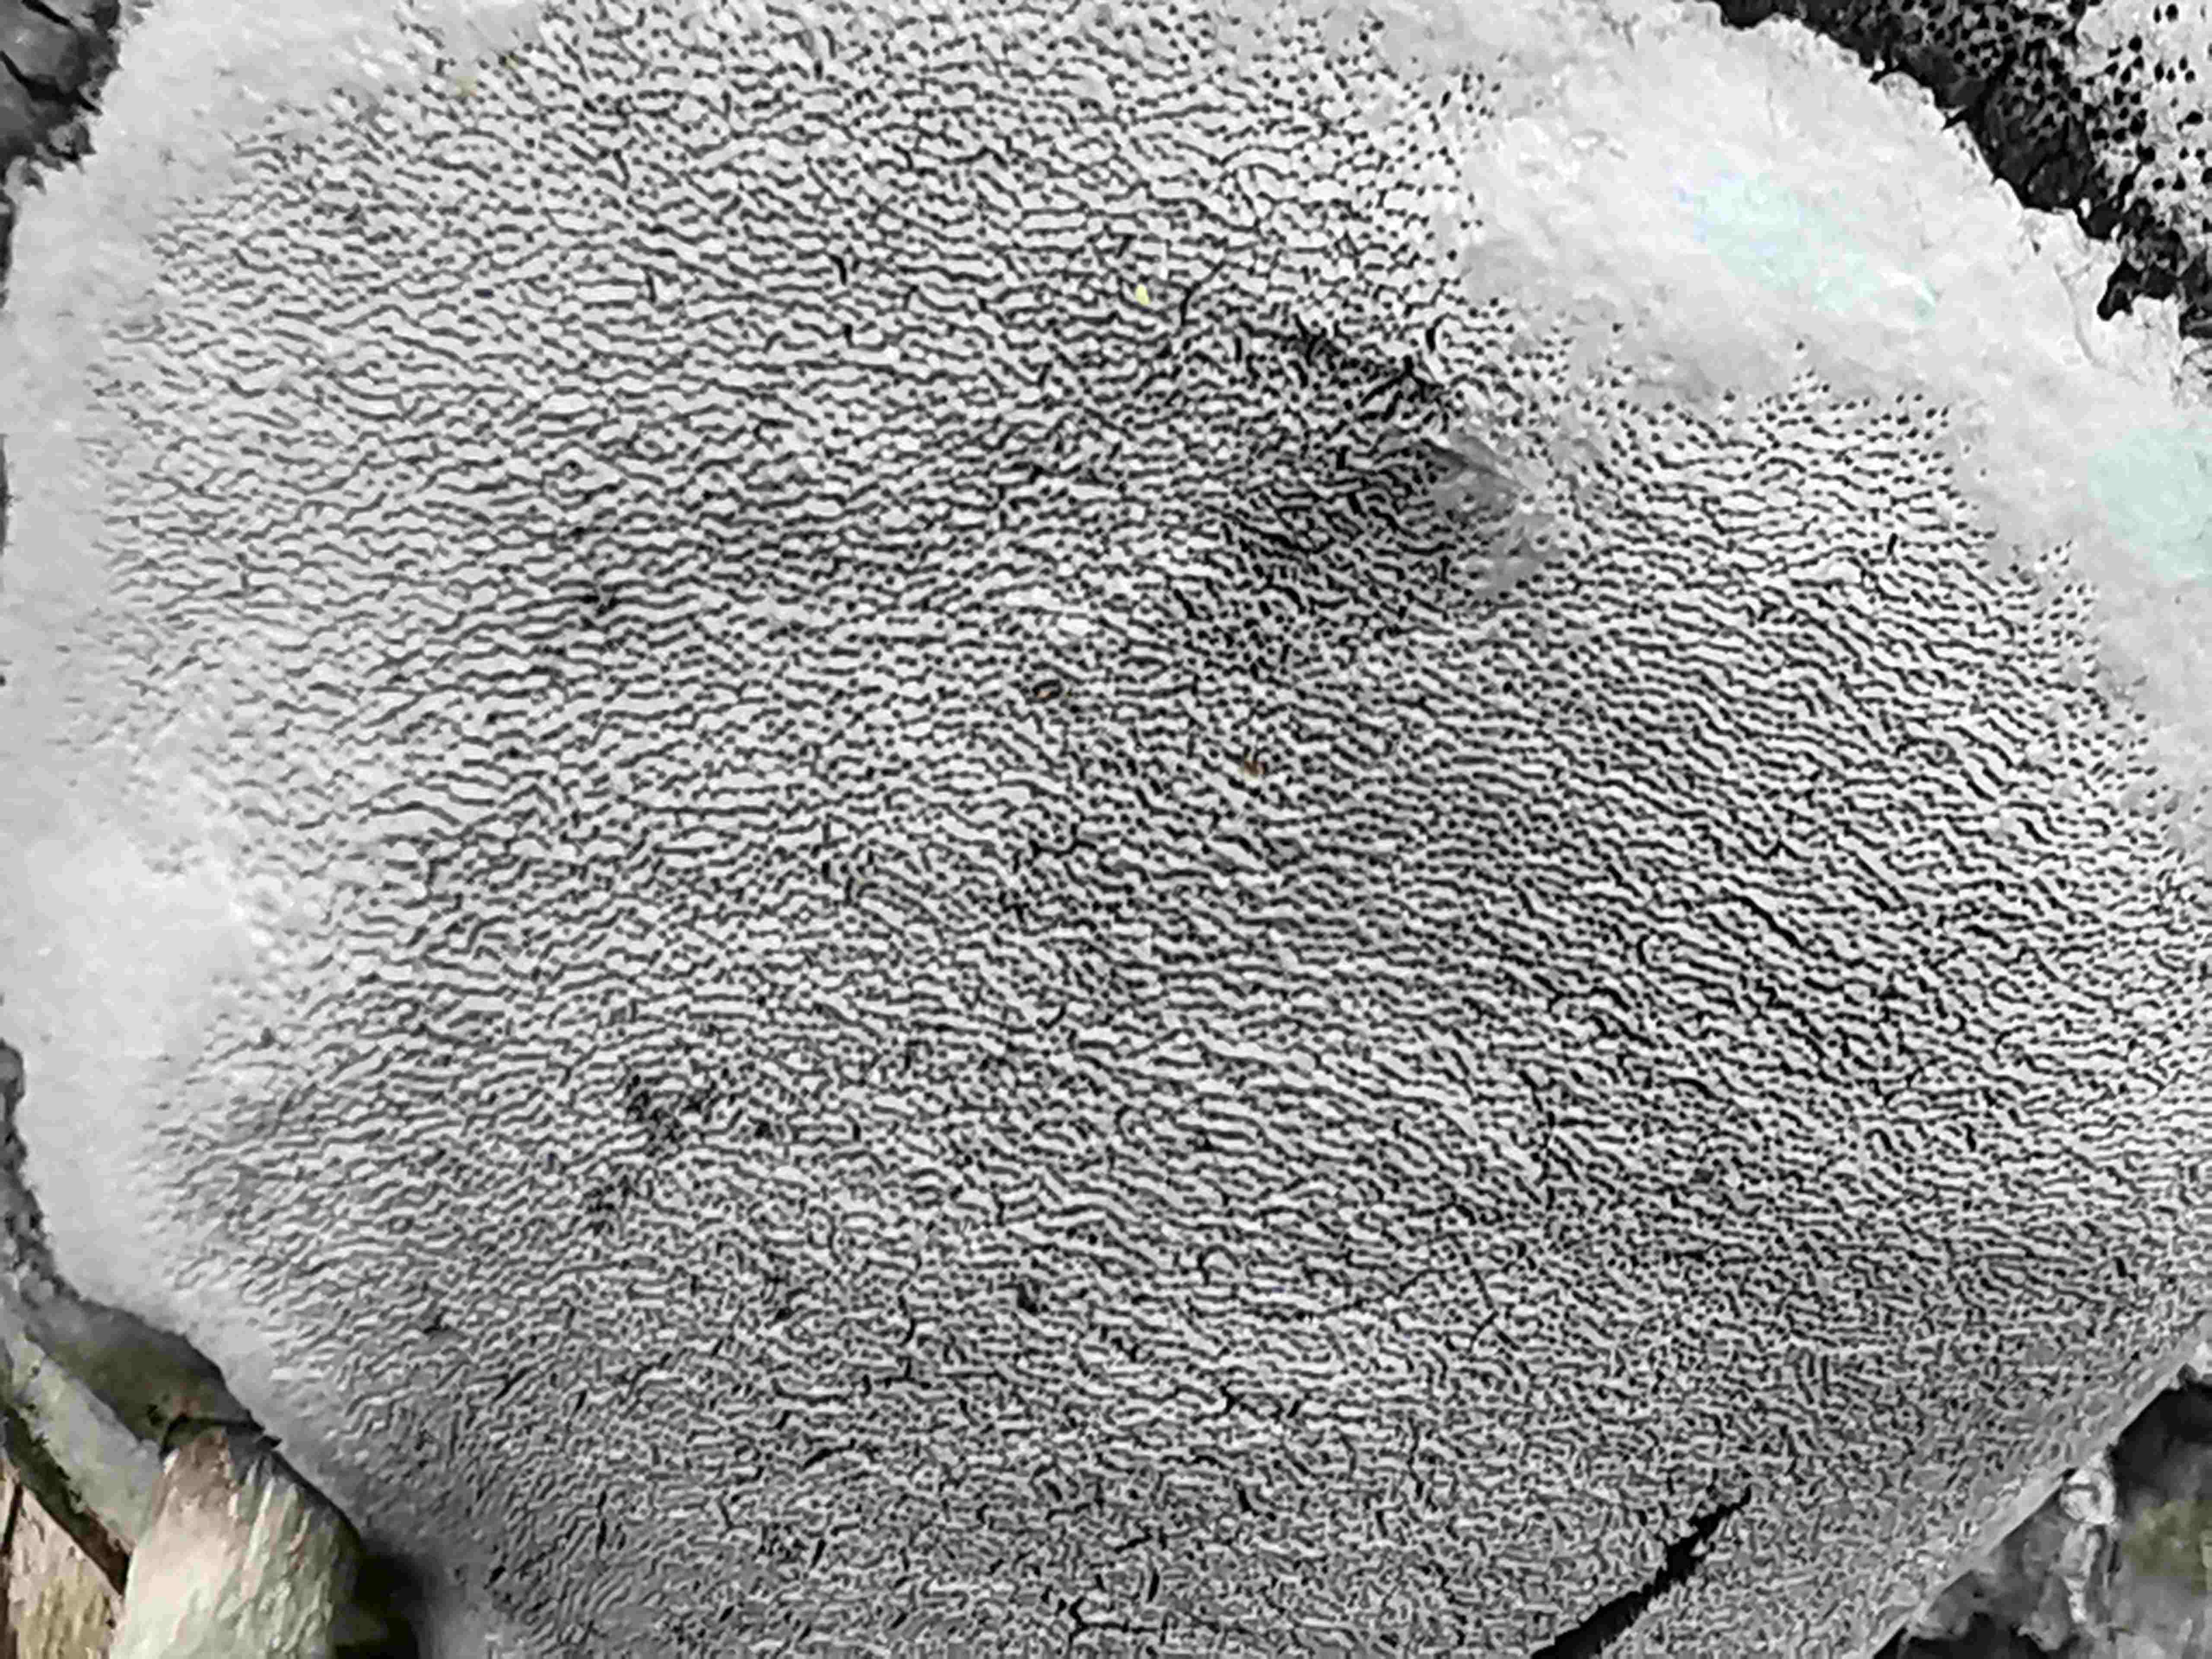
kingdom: Fungi
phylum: Basidiomycota
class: Agaricomycetes
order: Hymenochaetales
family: Hymenochaetaceae
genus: Phellinus
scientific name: Phellinus igniarius
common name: almindelig ildporesvamp
